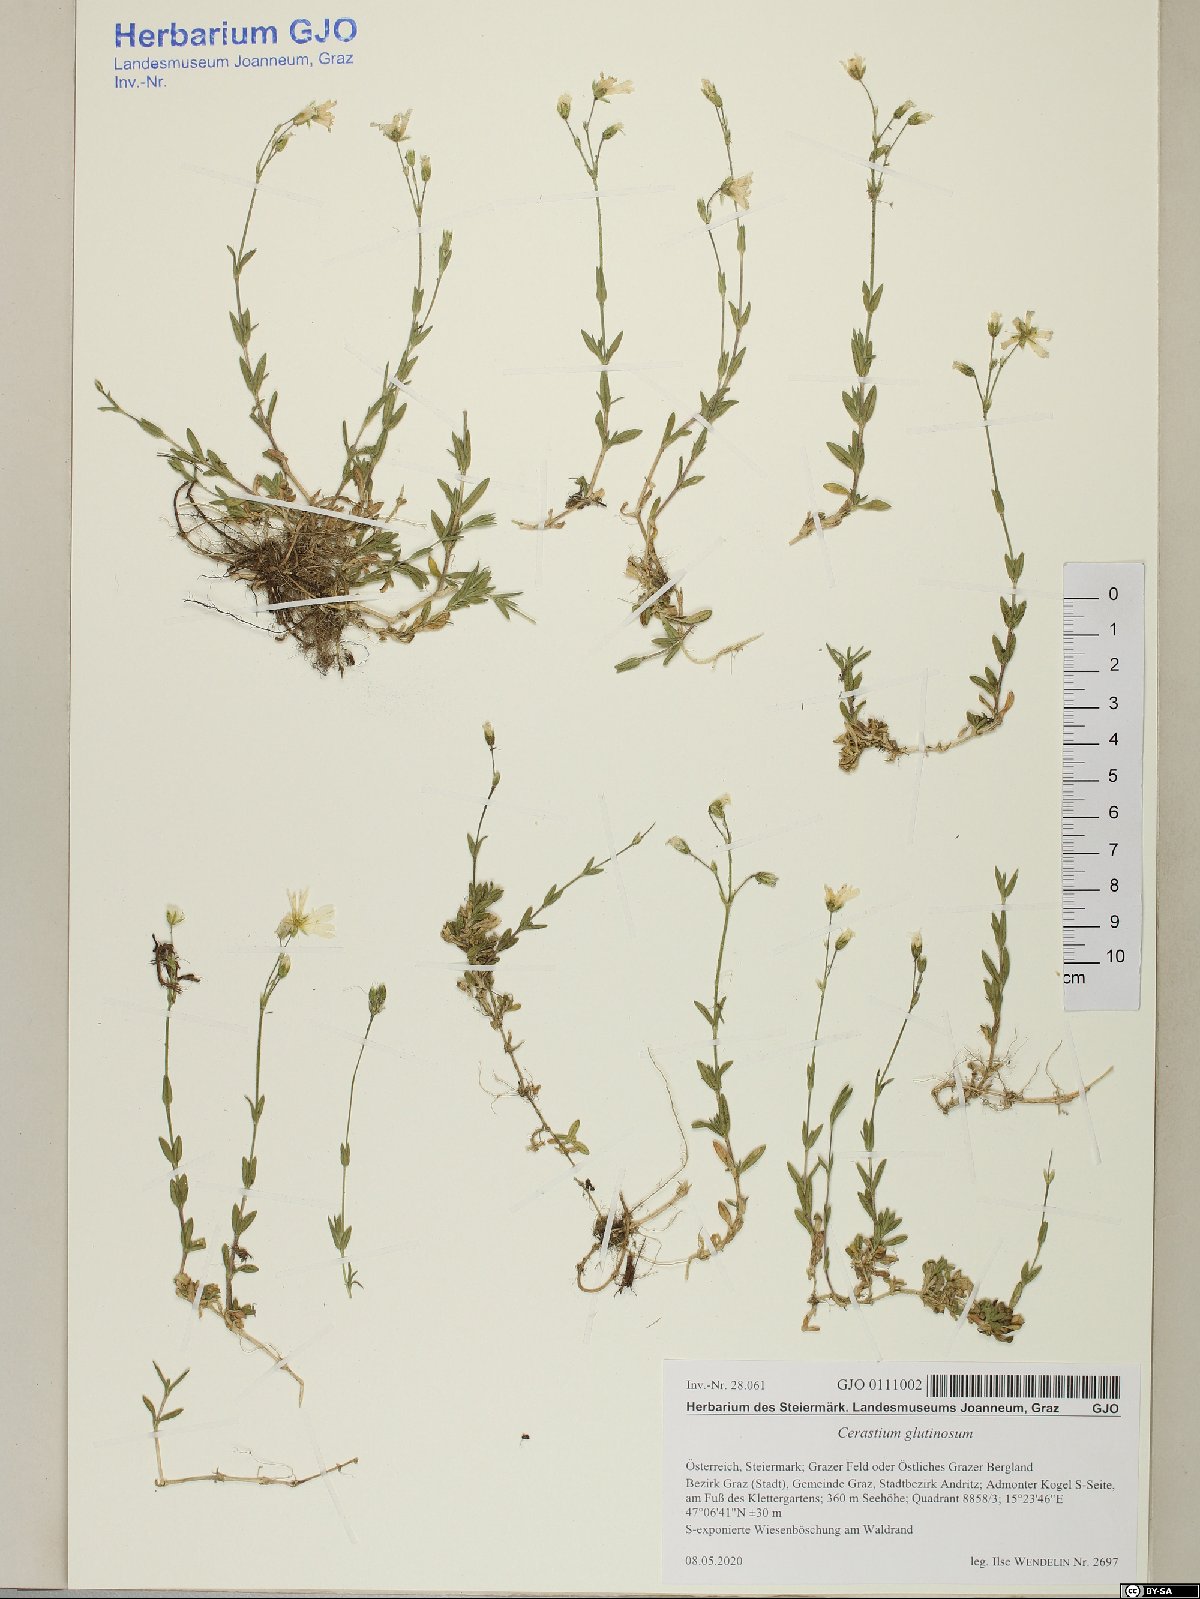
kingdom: Plantae
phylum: Tracheophyta
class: Magnoliopsida
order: Caryophyllales
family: Caryophyllaceae
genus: Cerastium
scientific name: Cerastium glutinosum
